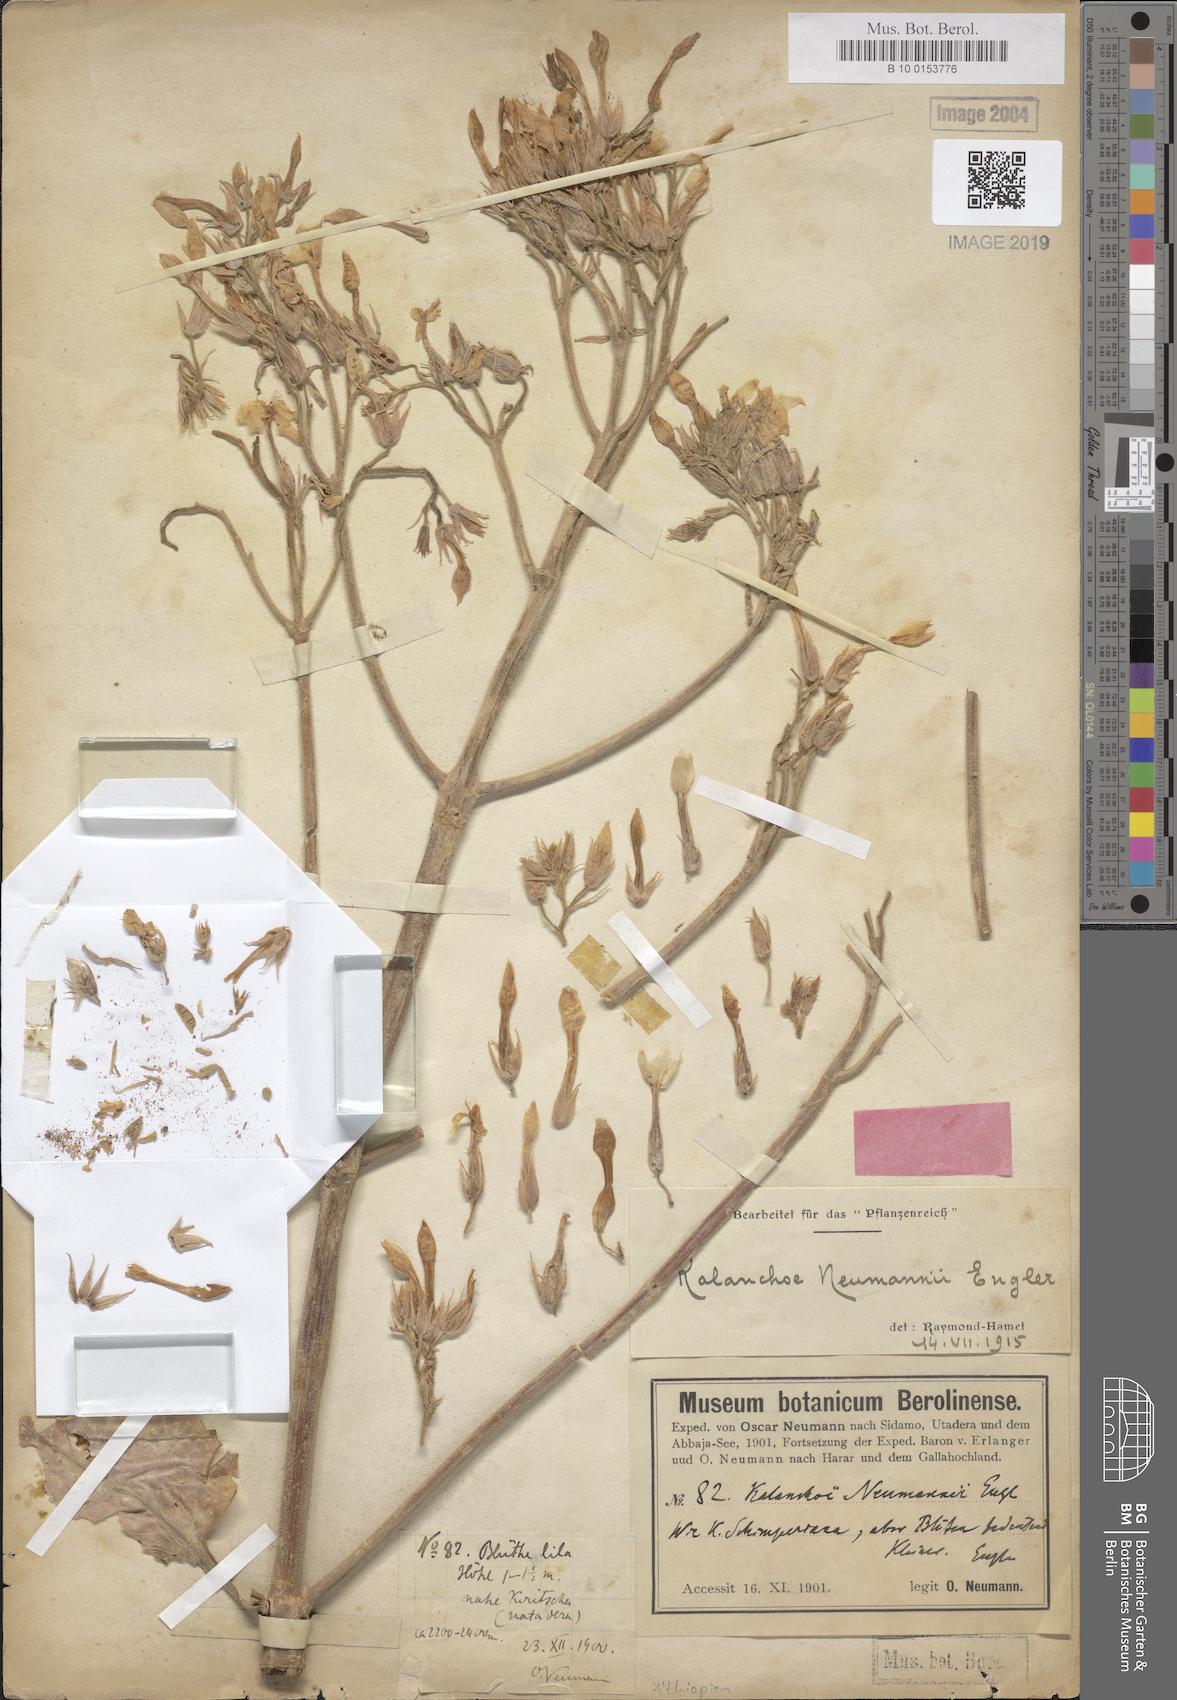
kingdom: Plantae
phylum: Tracheophyta
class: Magnoliopsida
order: Saxifragales
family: Crassulaceae
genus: Kalanchoe
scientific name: Kalanchoe petitiana
